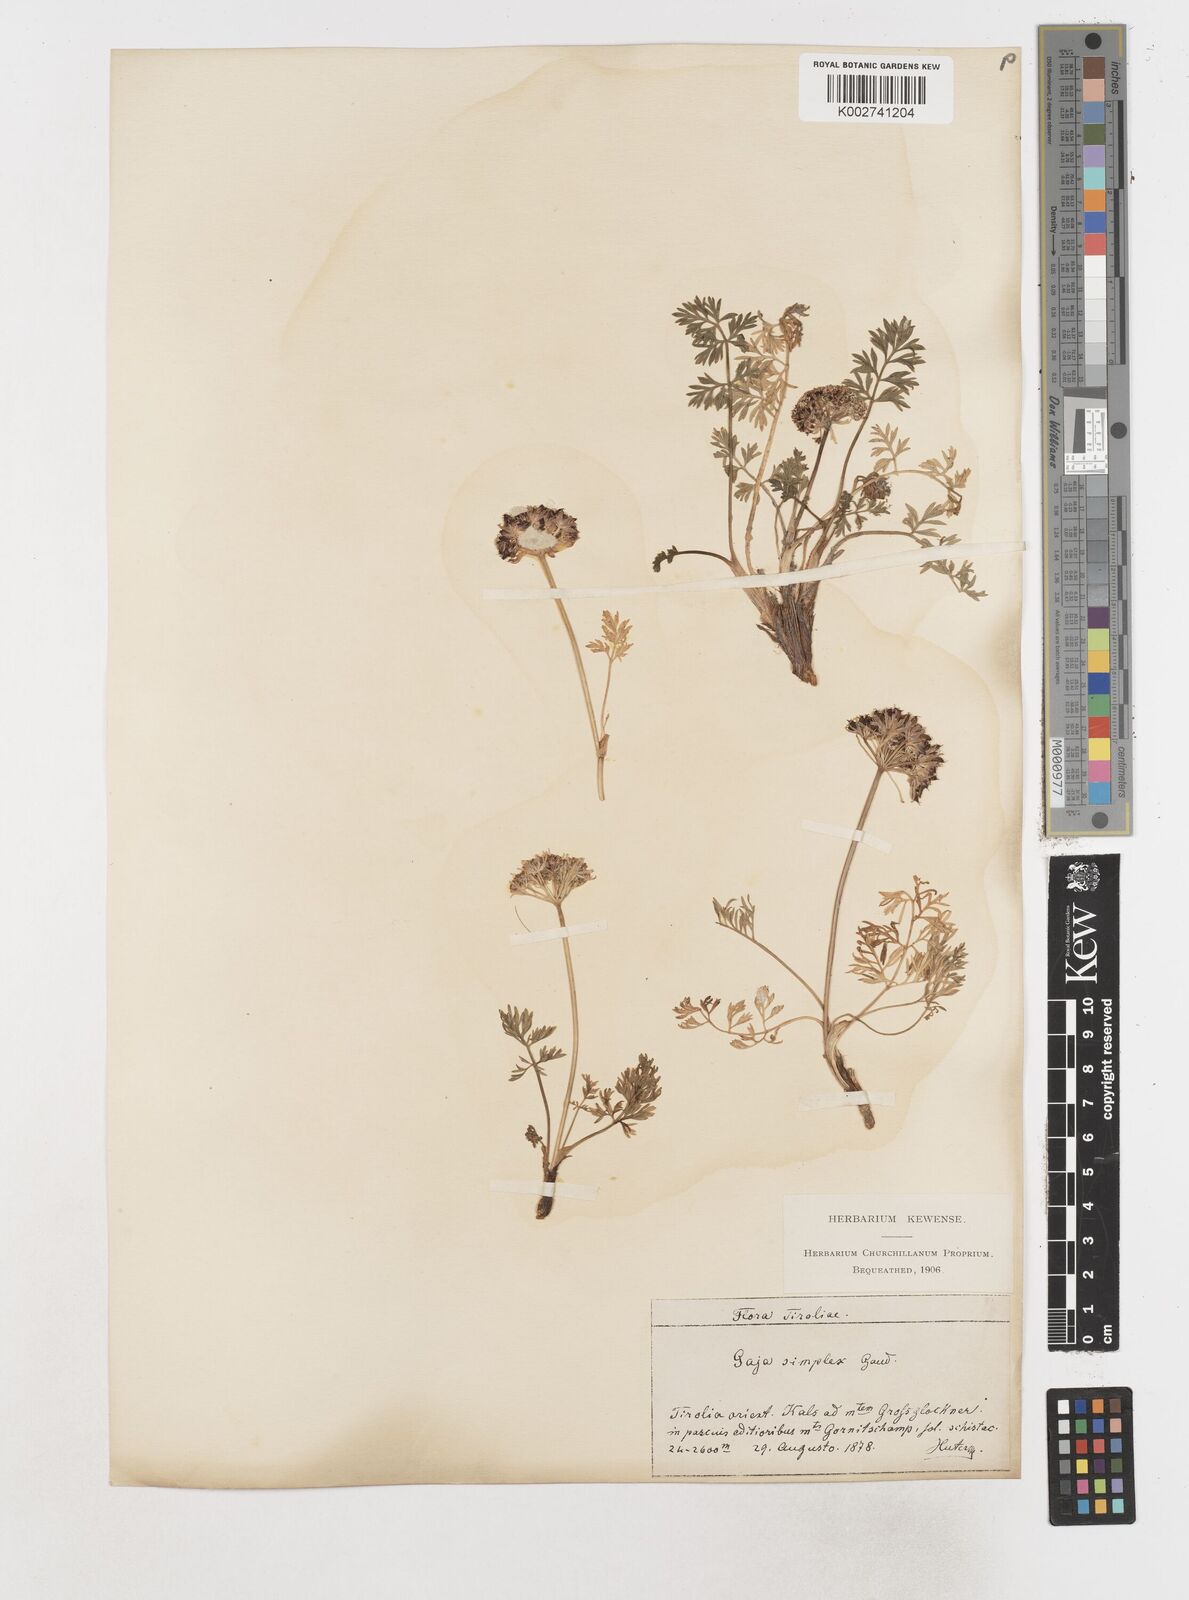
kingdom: Plantae
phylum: Tracheophyta
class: Magnoliopsida
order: Apiales
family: Apiaceae
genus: Pachypleurum
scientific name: Pachypleurum mutellinoides
